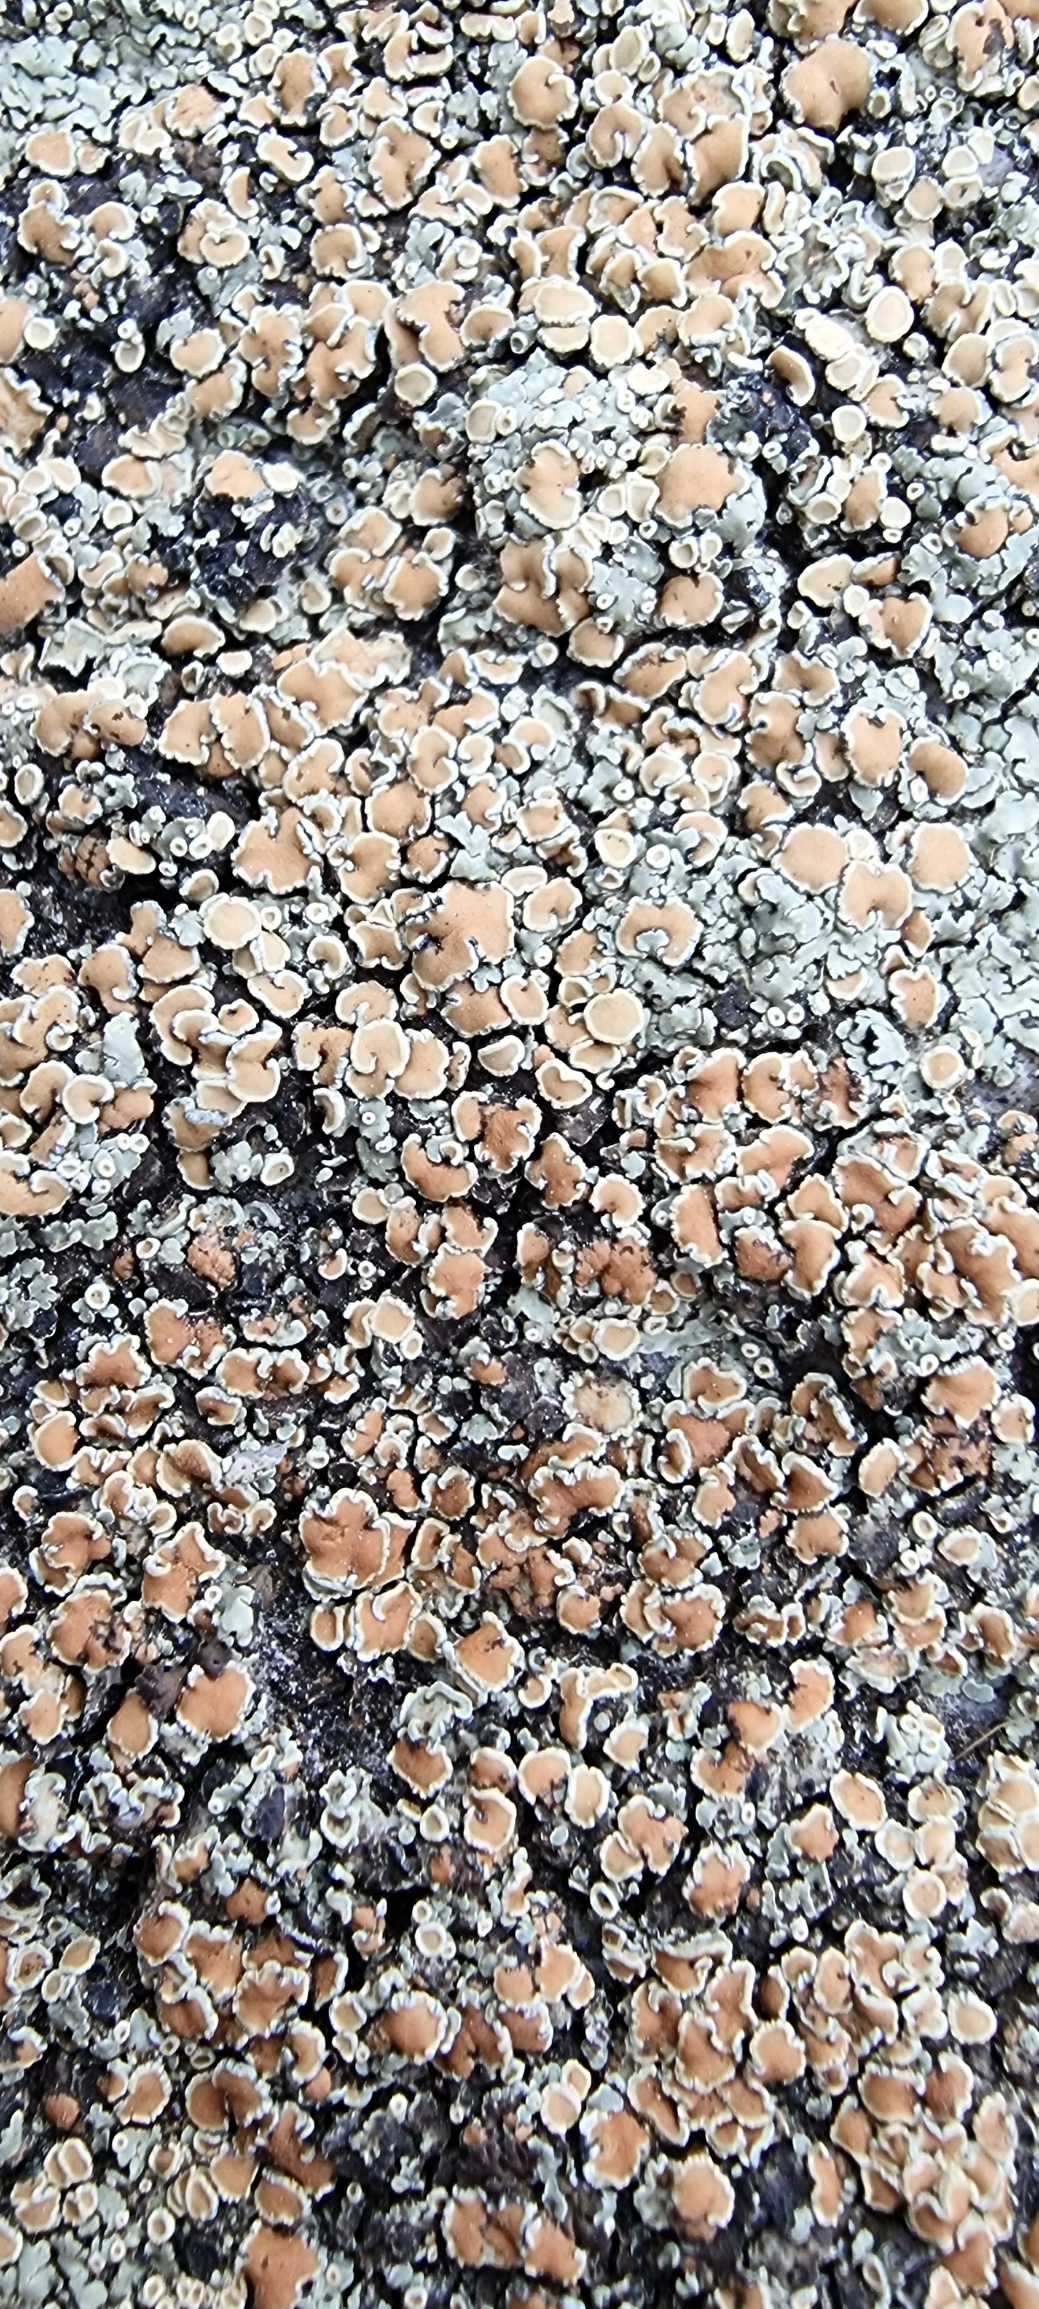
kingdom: Fungi
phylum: Ascomycota
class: Lecanoromycetes
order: Lecanorales
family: Lecanoraceae
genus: Protoparmeliopsis
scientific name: Protoparmeliopsis muralis
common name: Randfliget kantskivelav
